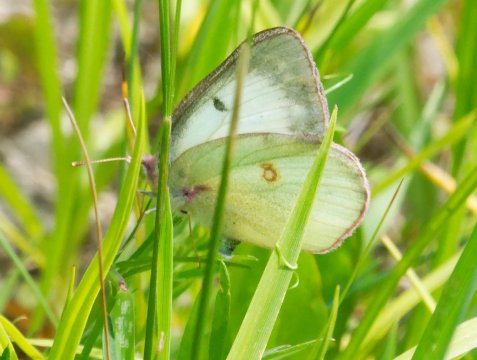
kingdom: Animalia
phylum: Arthropoda
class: Insecta
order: Lepidoptera
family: Pieridae
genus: Colias
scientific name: Colias philodice
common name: Clouded Sulphur
